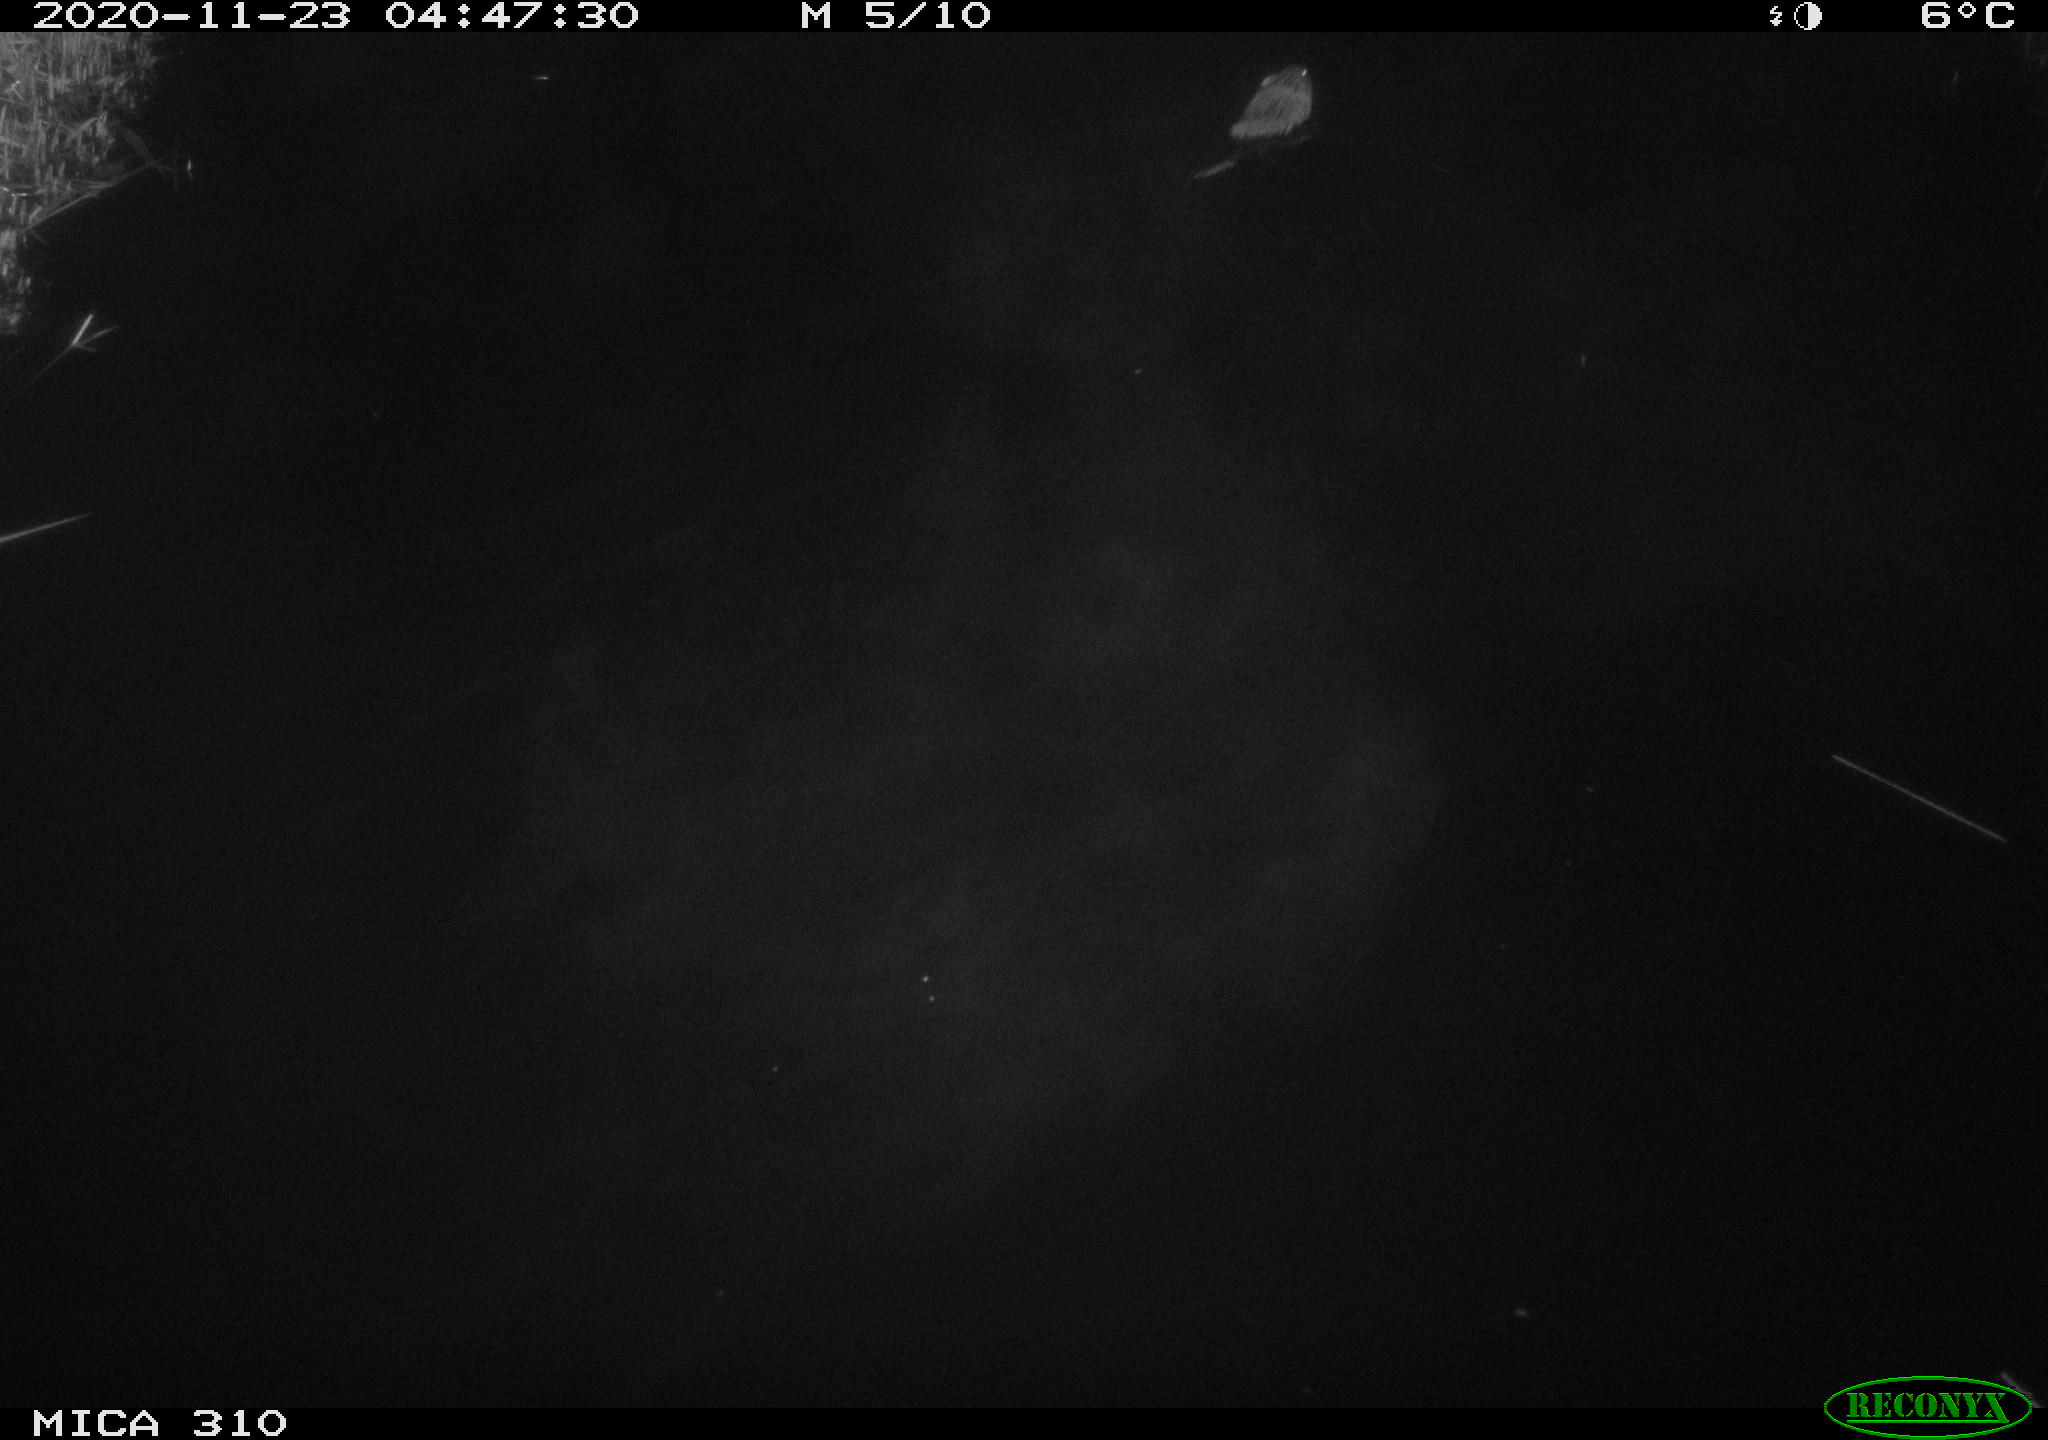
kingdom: Animalia
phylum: Chordata
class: Mammalia
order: Rodentia
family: Cricetidae
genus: Ondatra
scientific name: Ondatra zibethicus
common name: Muskrat
